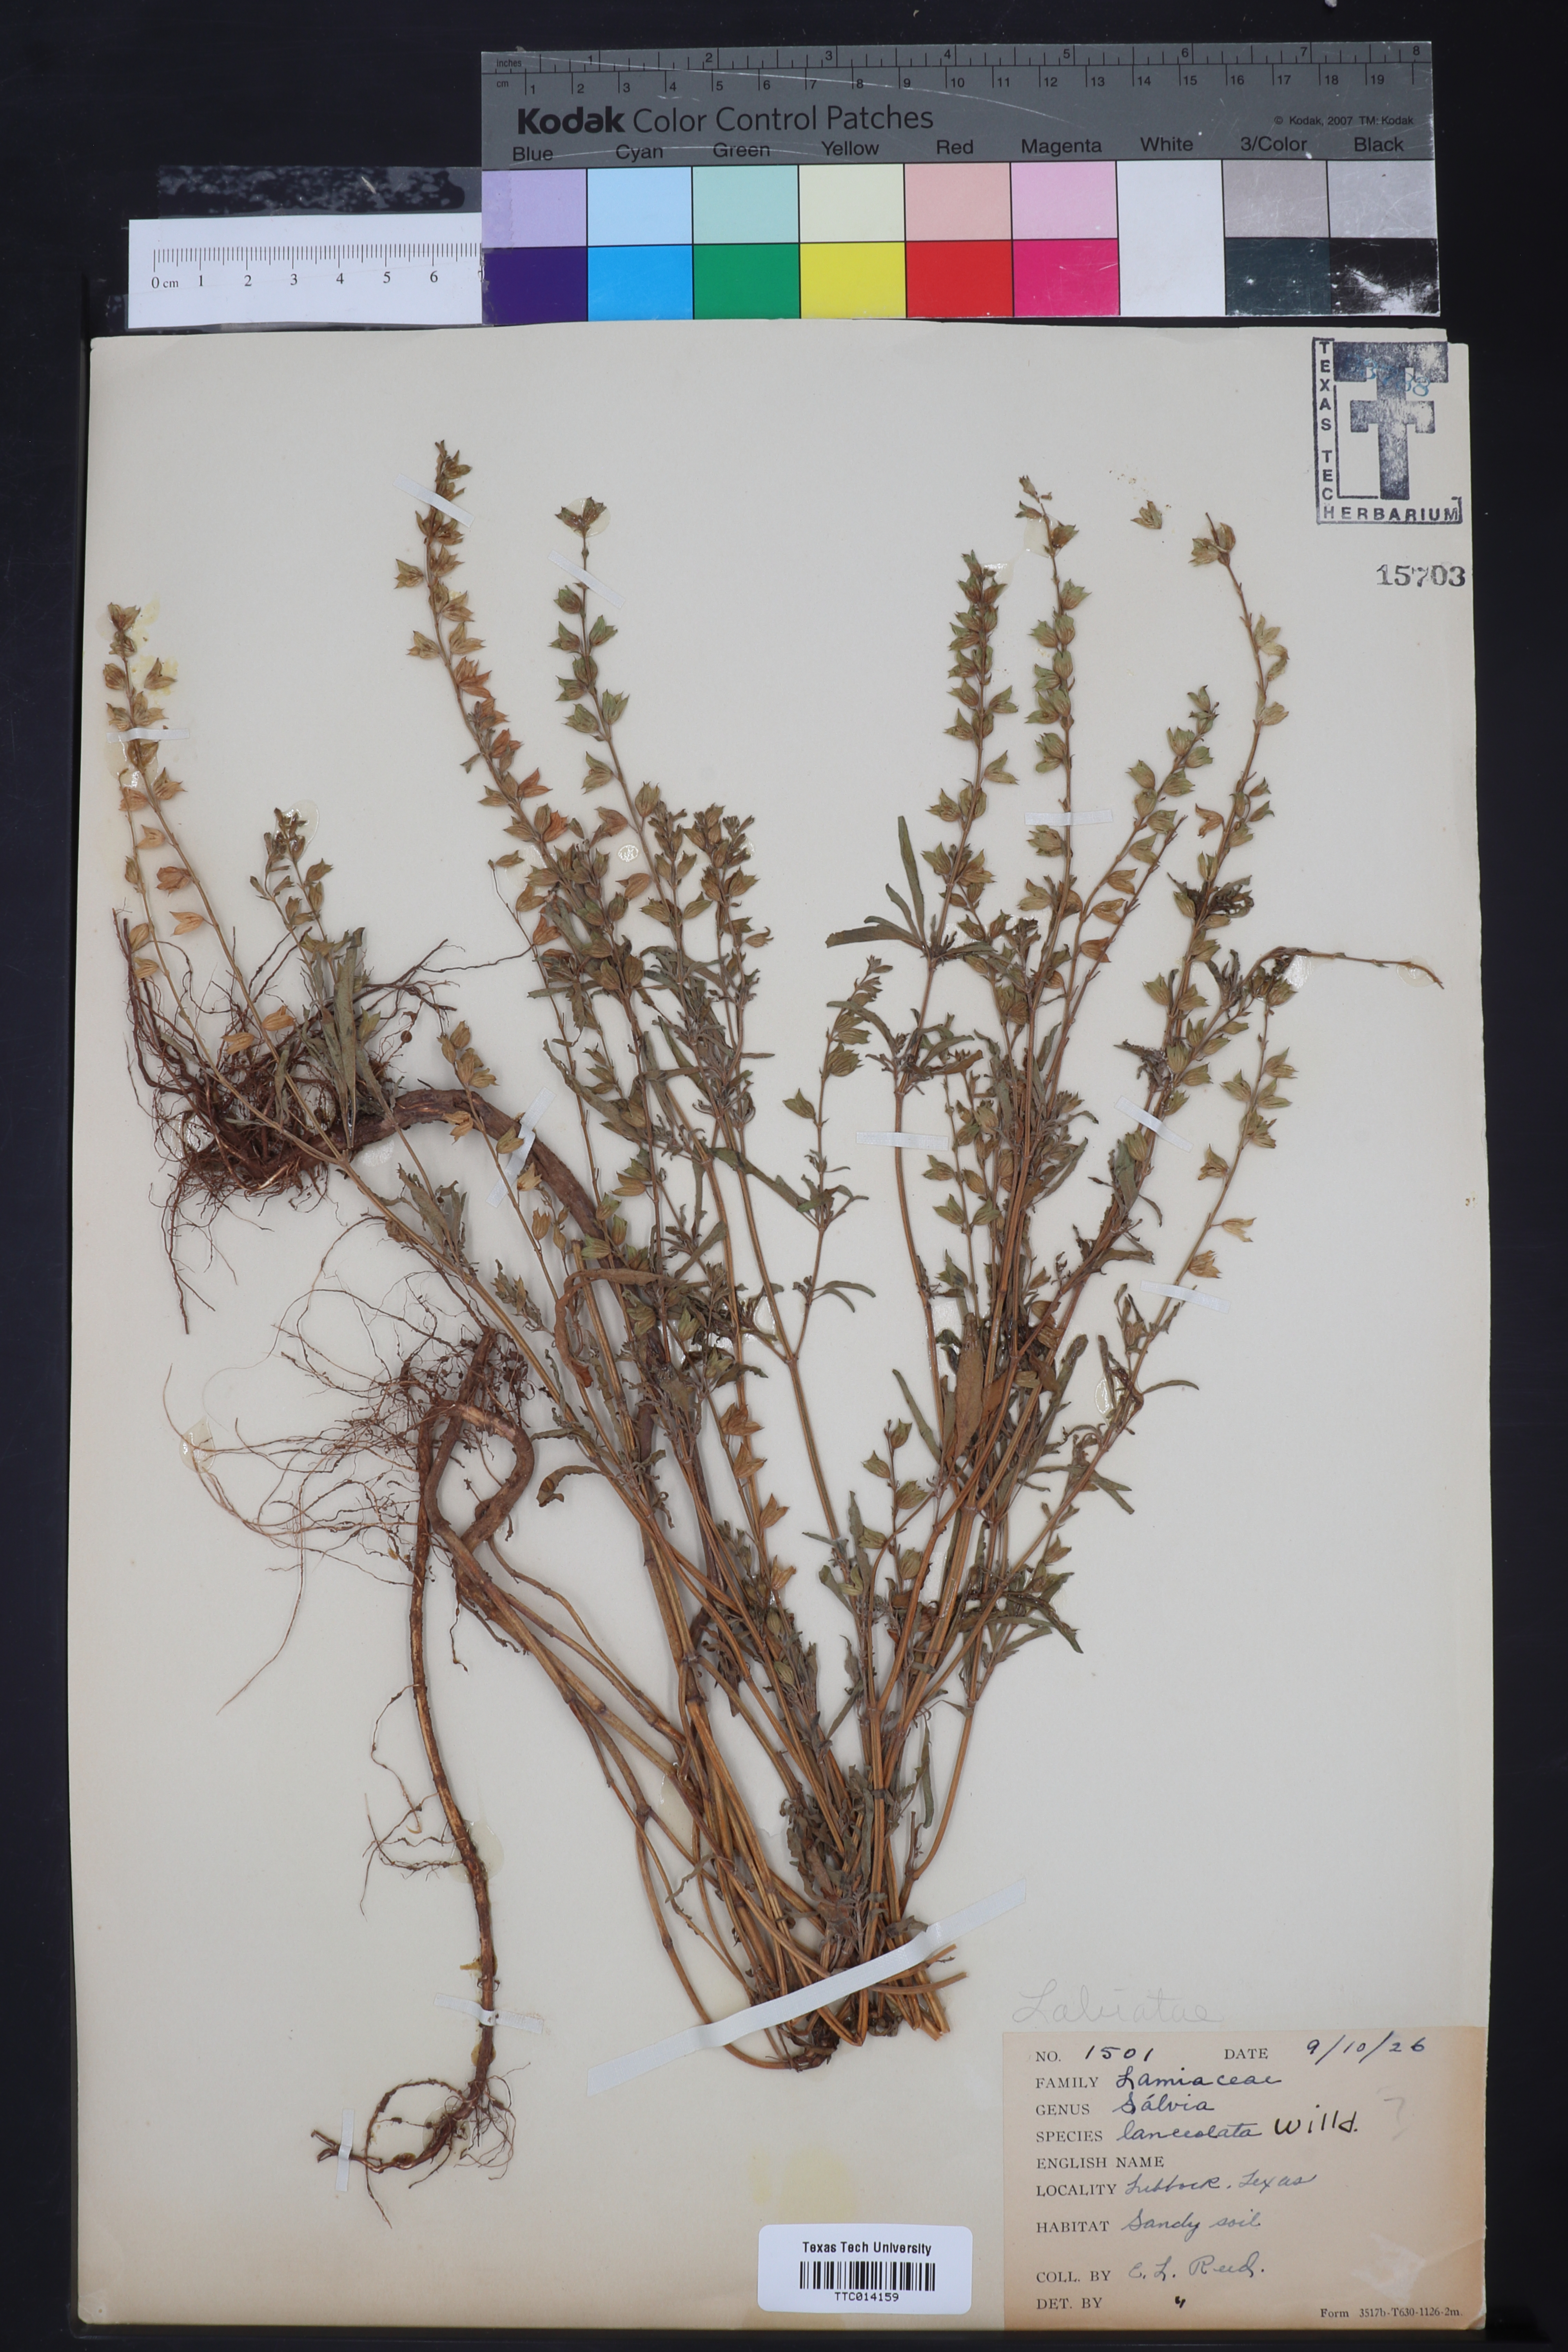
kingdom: Plantae
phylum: Tracheophyta
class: Magnoliopsida
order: Lamiales
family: Lamiaceae
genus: Salvia
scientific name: Salvia uliginosa
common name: Bog sage
